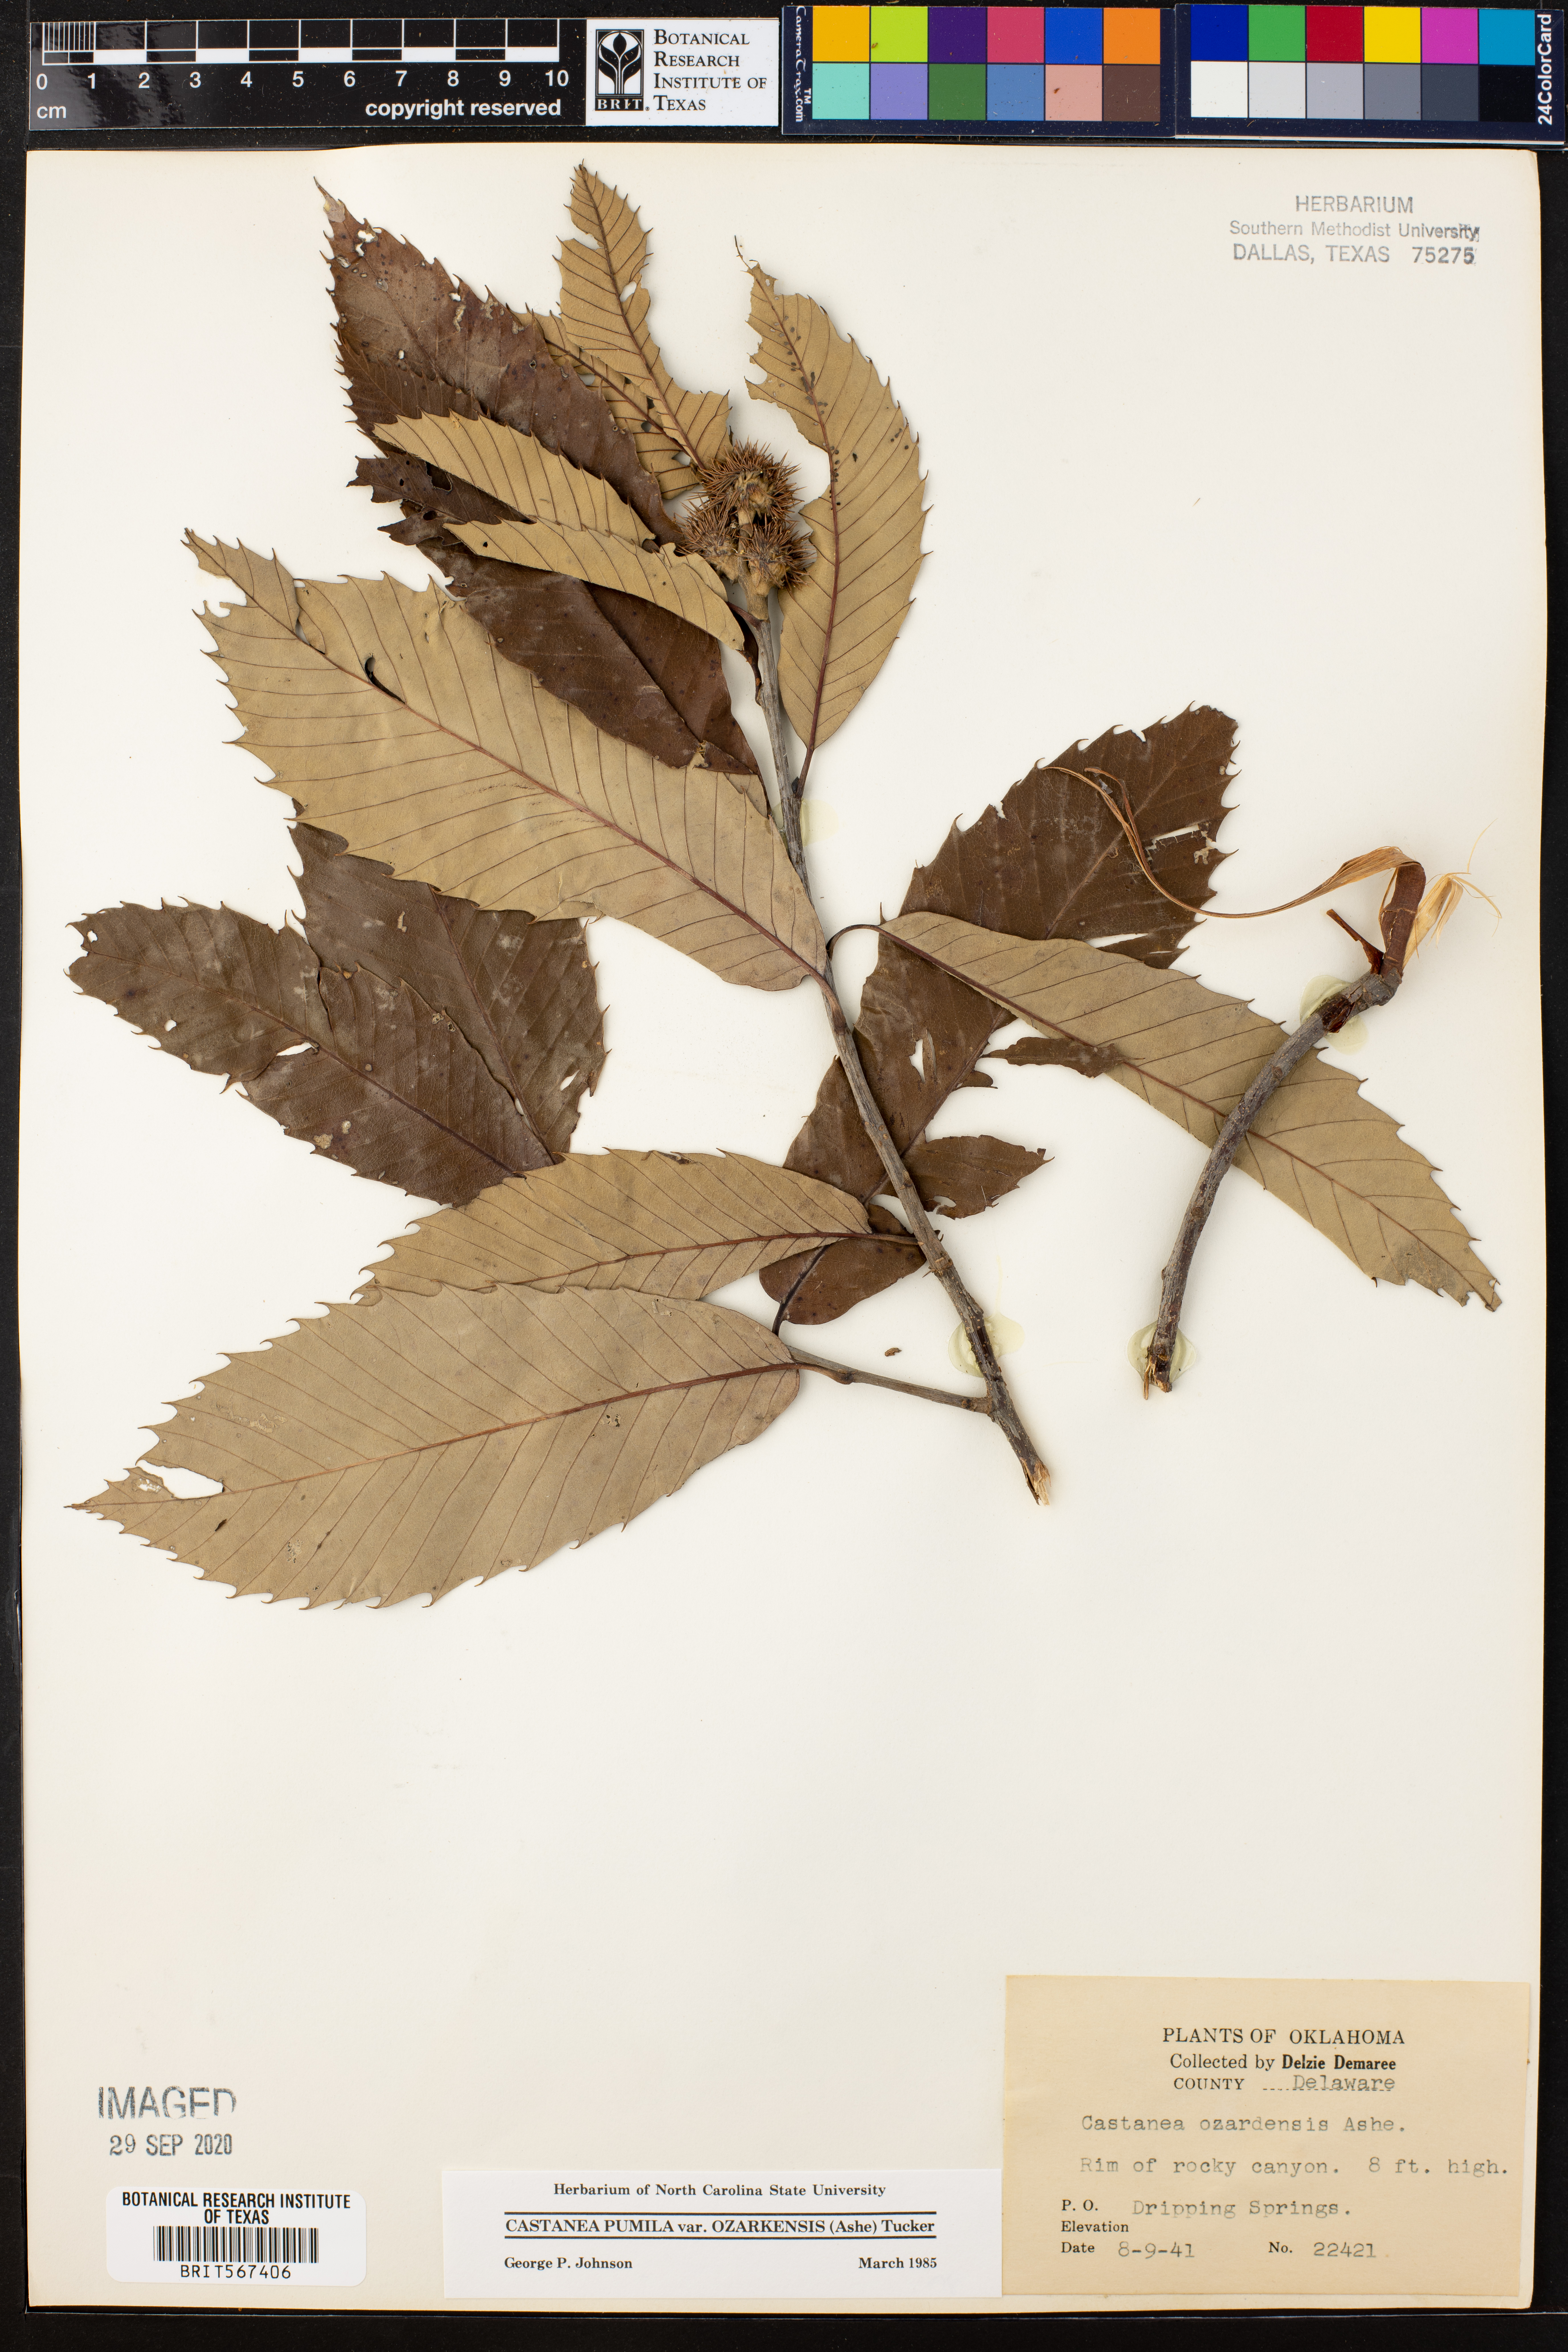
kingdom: Plantae
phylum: Tracheophyta
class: Magnoliopsida
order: Fagales
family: Fagaceae
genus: Castanea
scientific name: Castanea ozarkensis
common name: Ozark chinkapin
